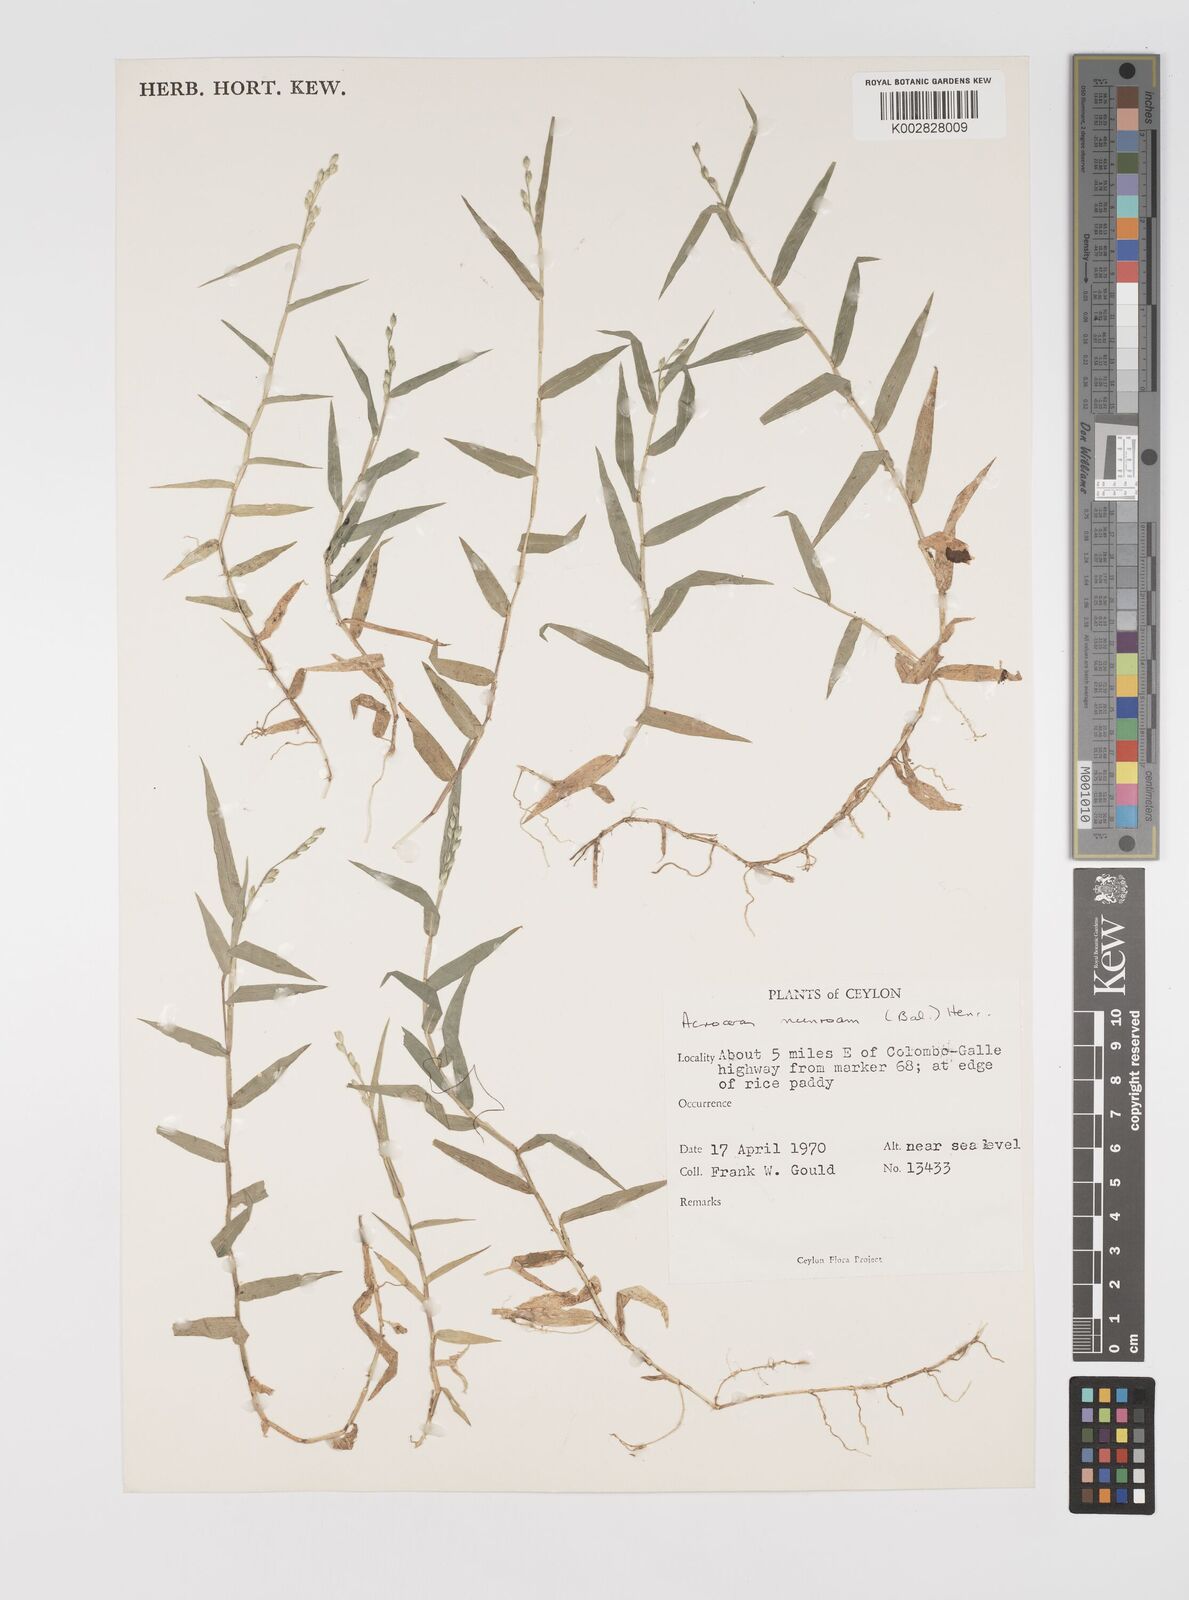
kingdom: Plantae
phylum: Tracheophyta
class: Liliopsida
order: Poales
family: Poaceae
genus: Acroceras
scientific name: Acroceras munroanum
